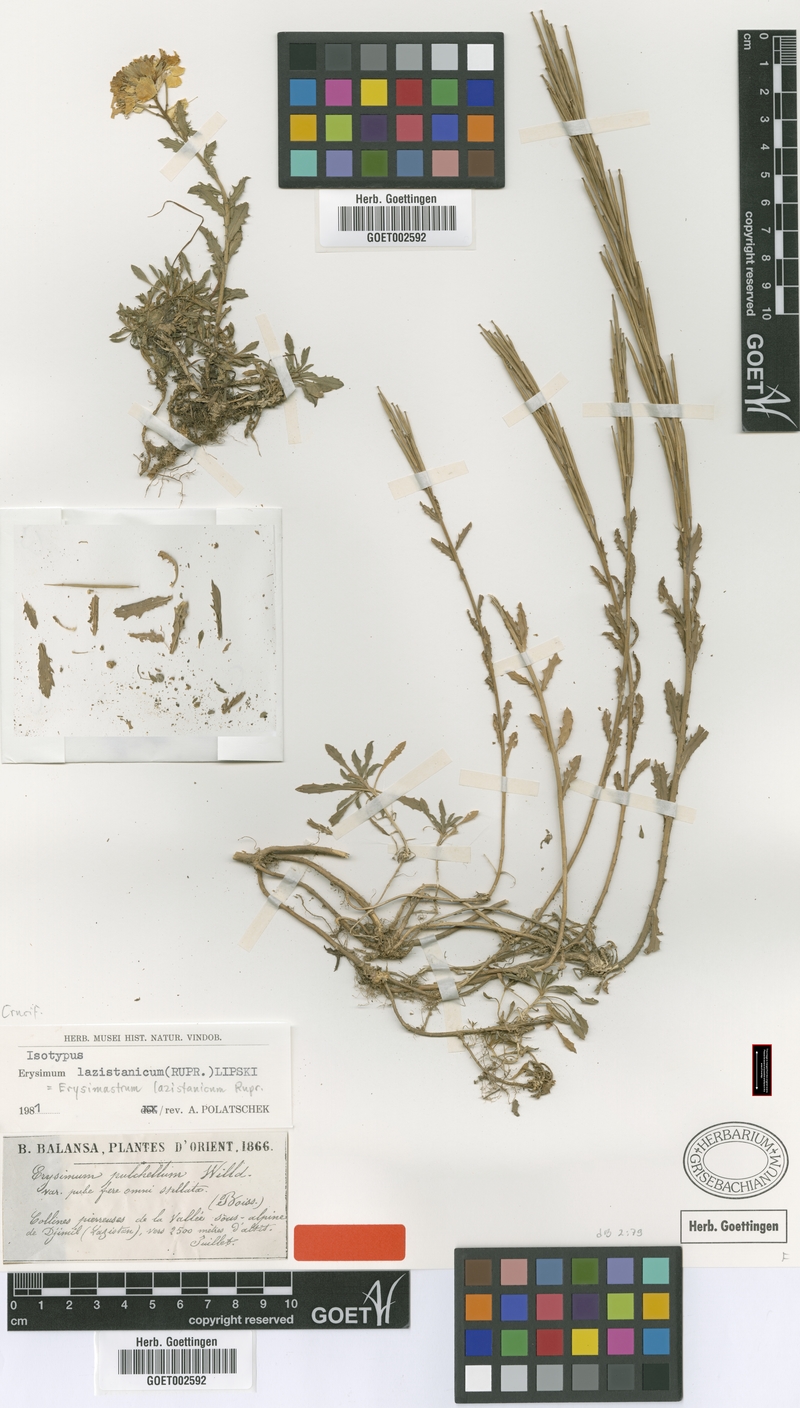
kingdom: Plantae
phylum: Tracheophyta
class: Magnoliopsida
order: Brassicales
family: Brassicaceae
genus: Erysimum
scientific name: Erysimum pulchellum
